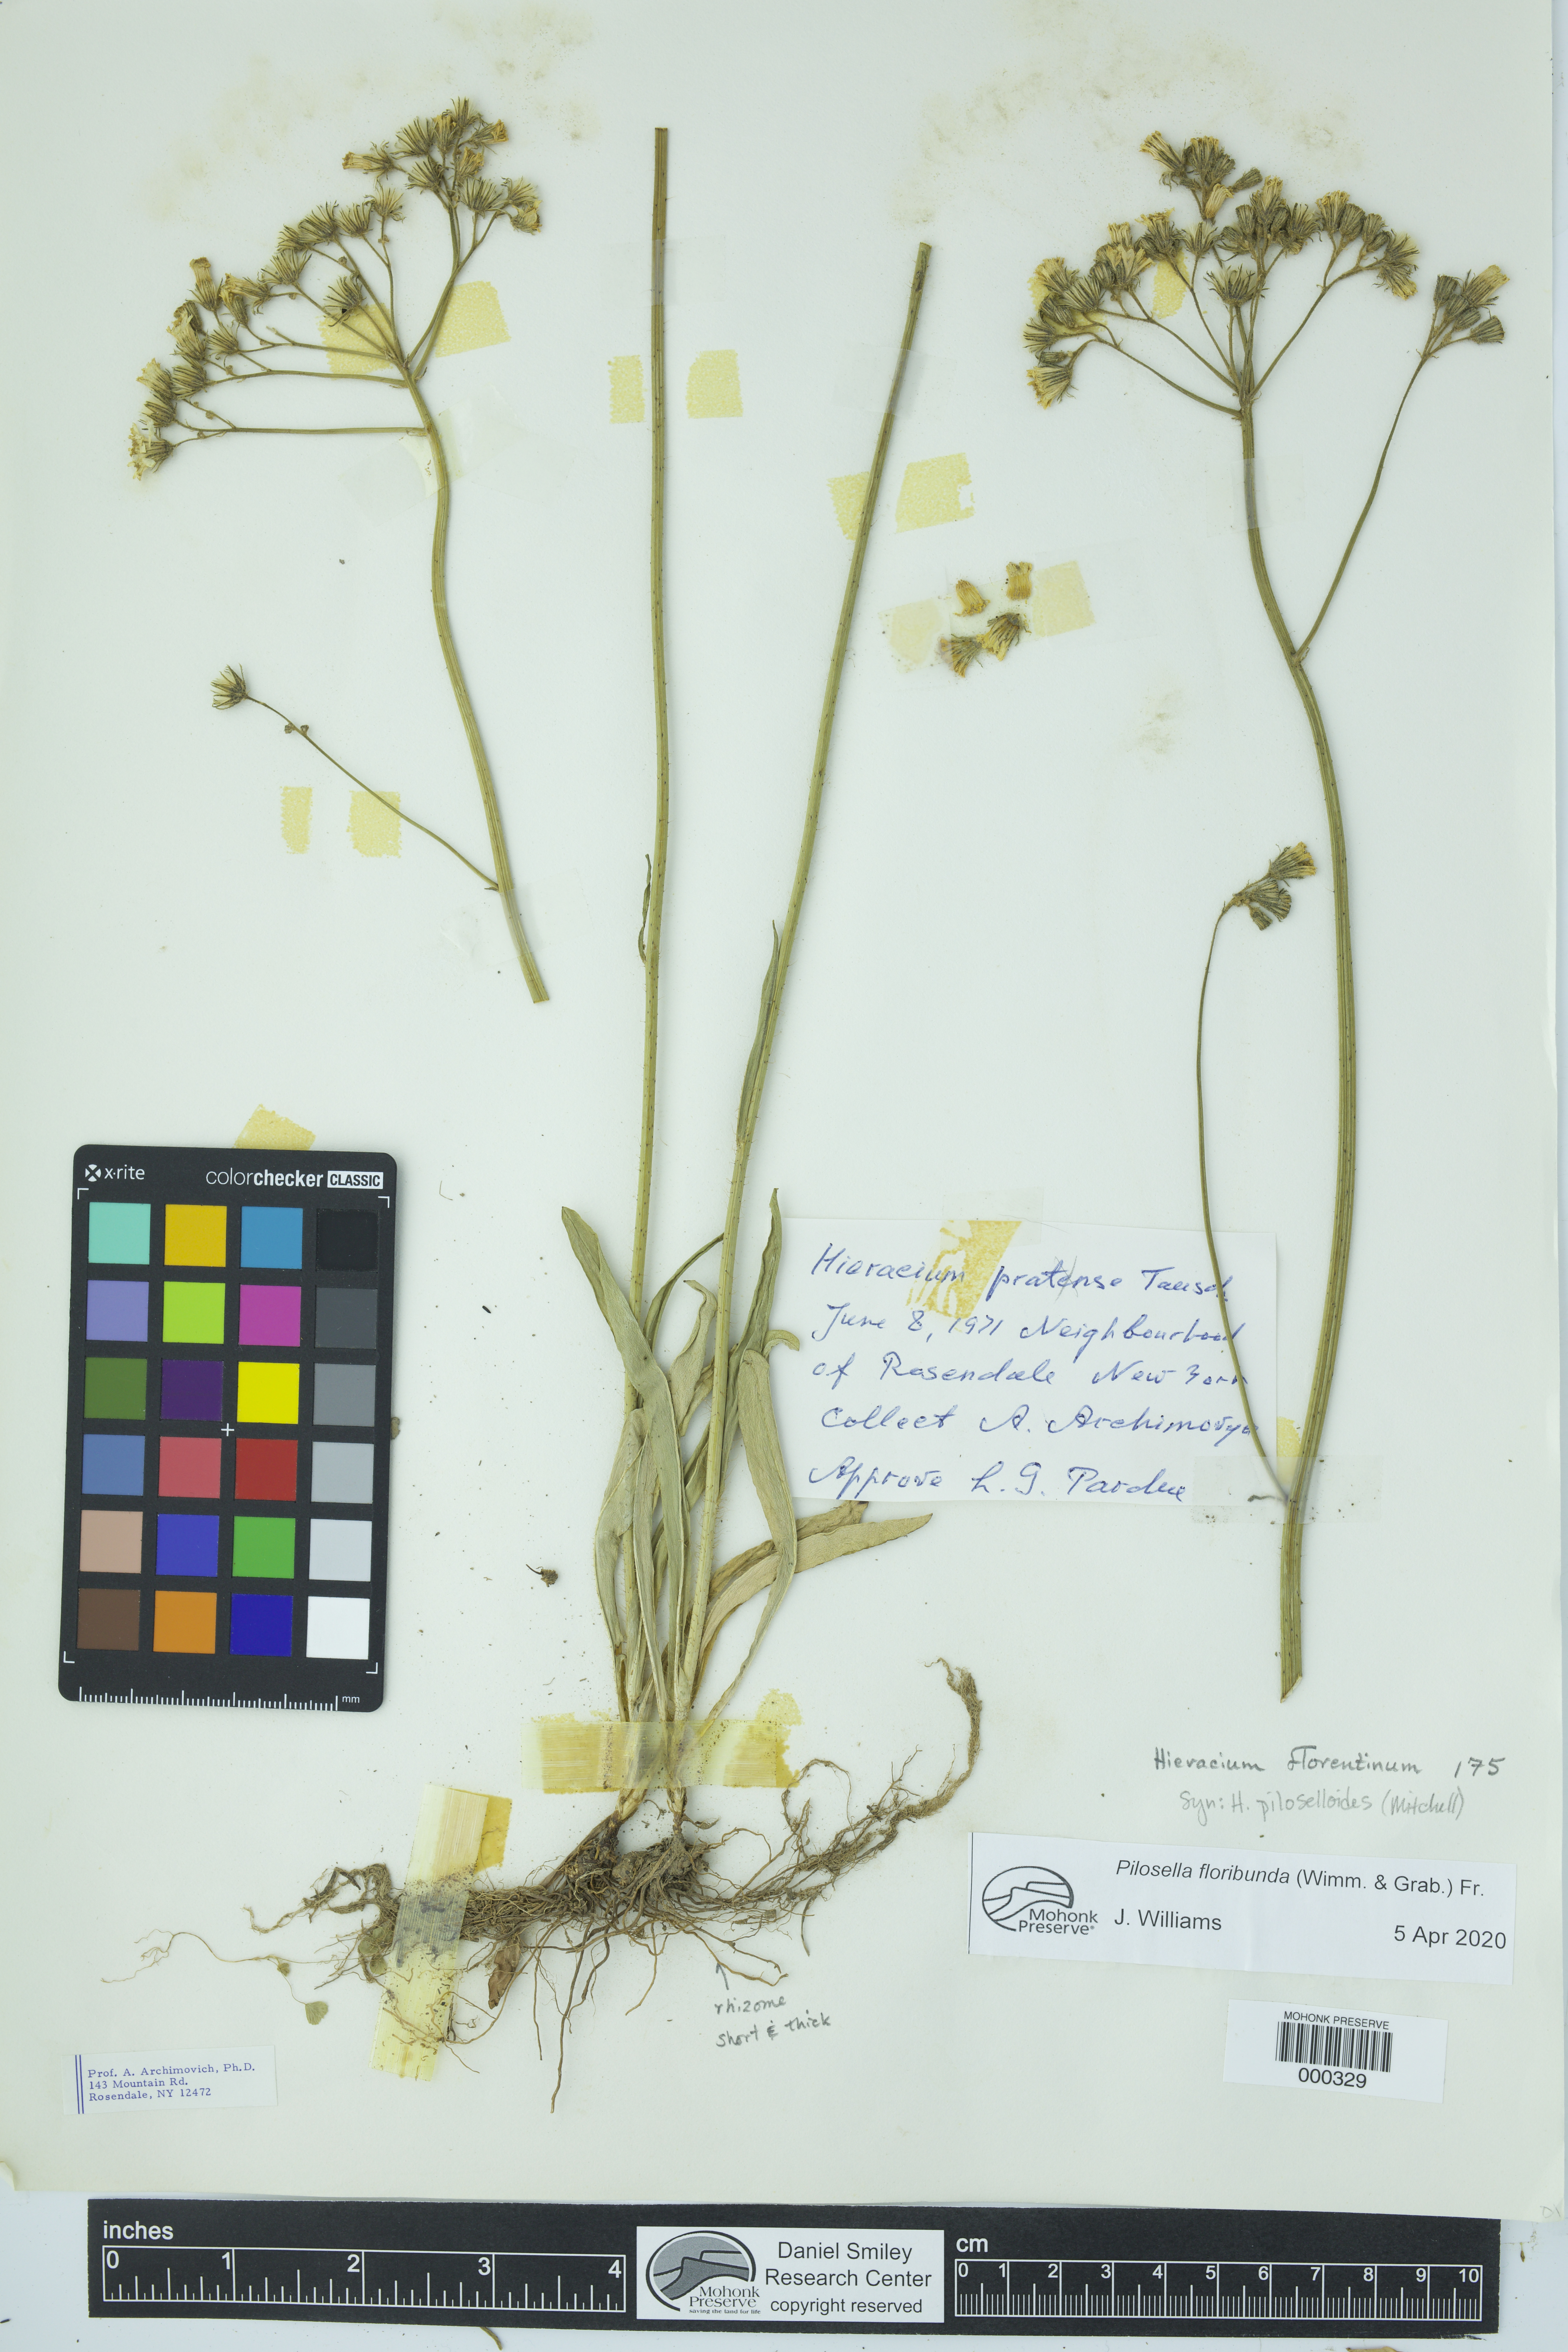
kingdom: Plantae
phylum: Tracheophyta
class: Magnoliopsida
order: Asterales
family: Asteraceae
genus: Pilosella
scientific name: Pilosella piloselloides
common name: Glaucous king-devil
